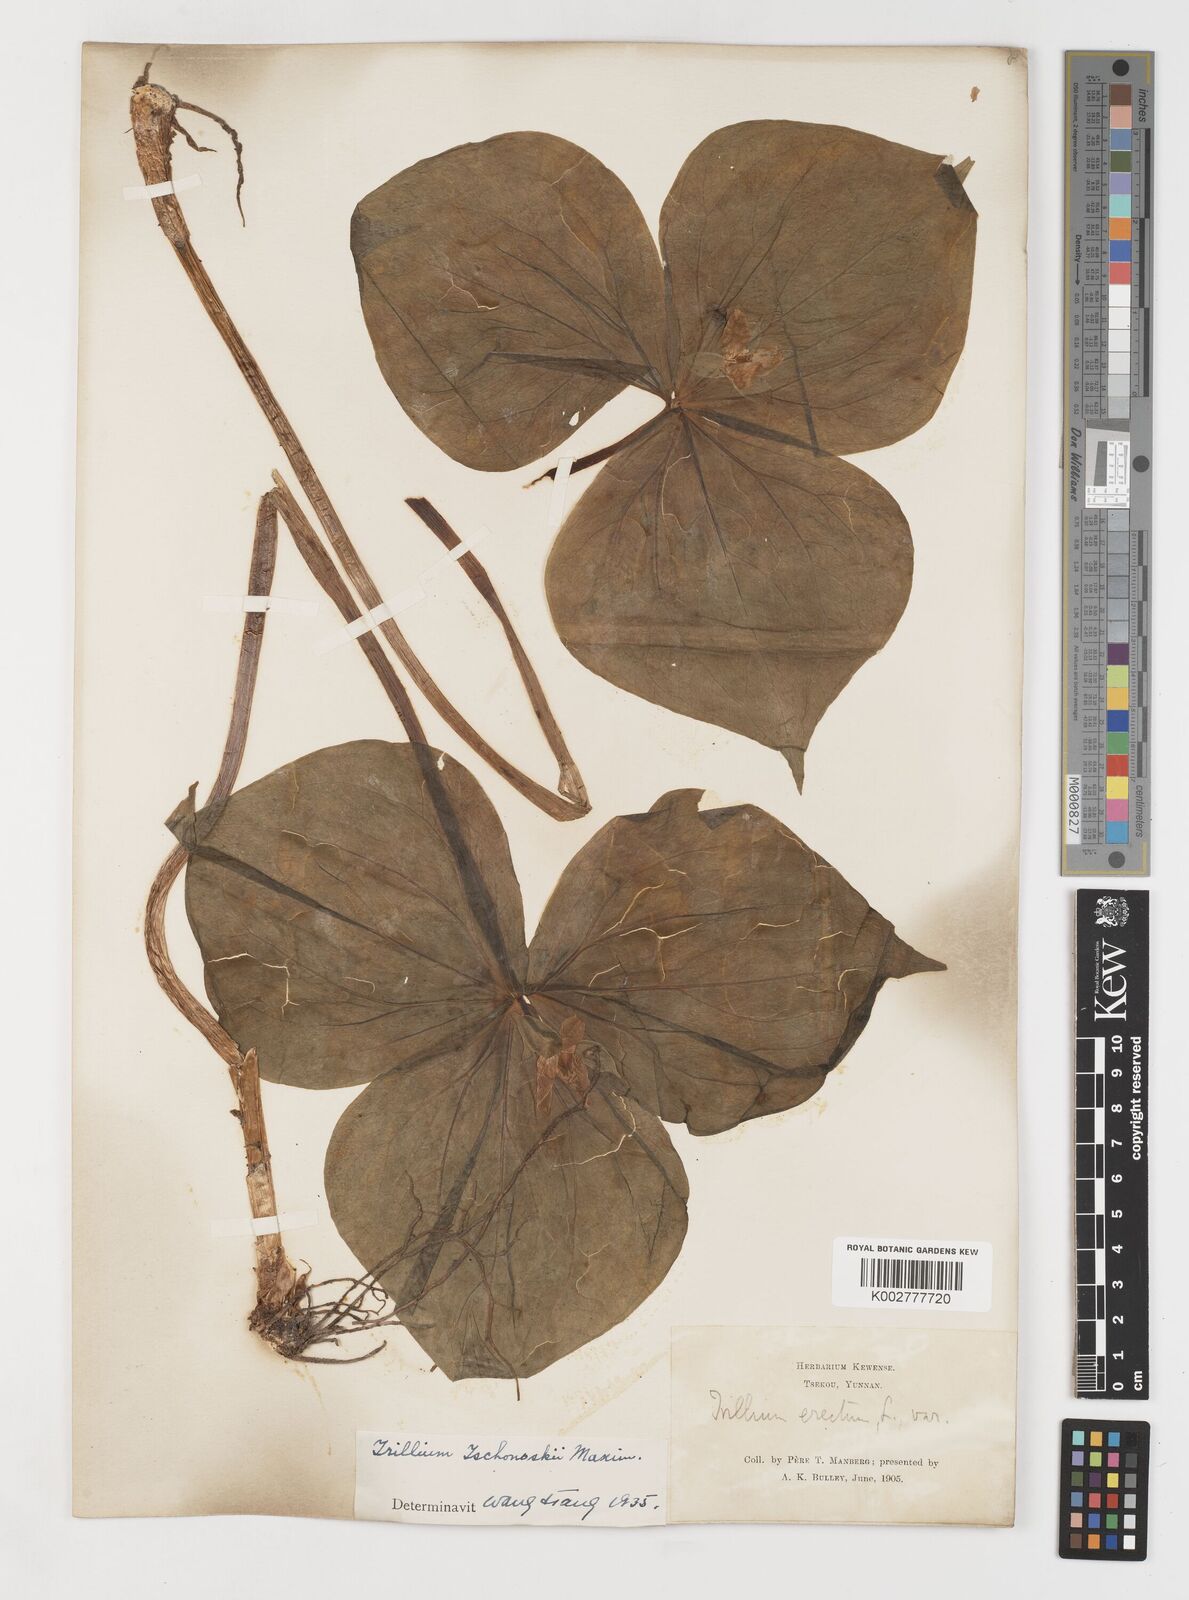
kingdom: Plantae
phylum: Tracheophyta
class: Liliopsida
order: Liliales
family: Melanthiaceae
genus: Trillium
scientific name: Trillium tschonoskii
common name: A pearl on head
